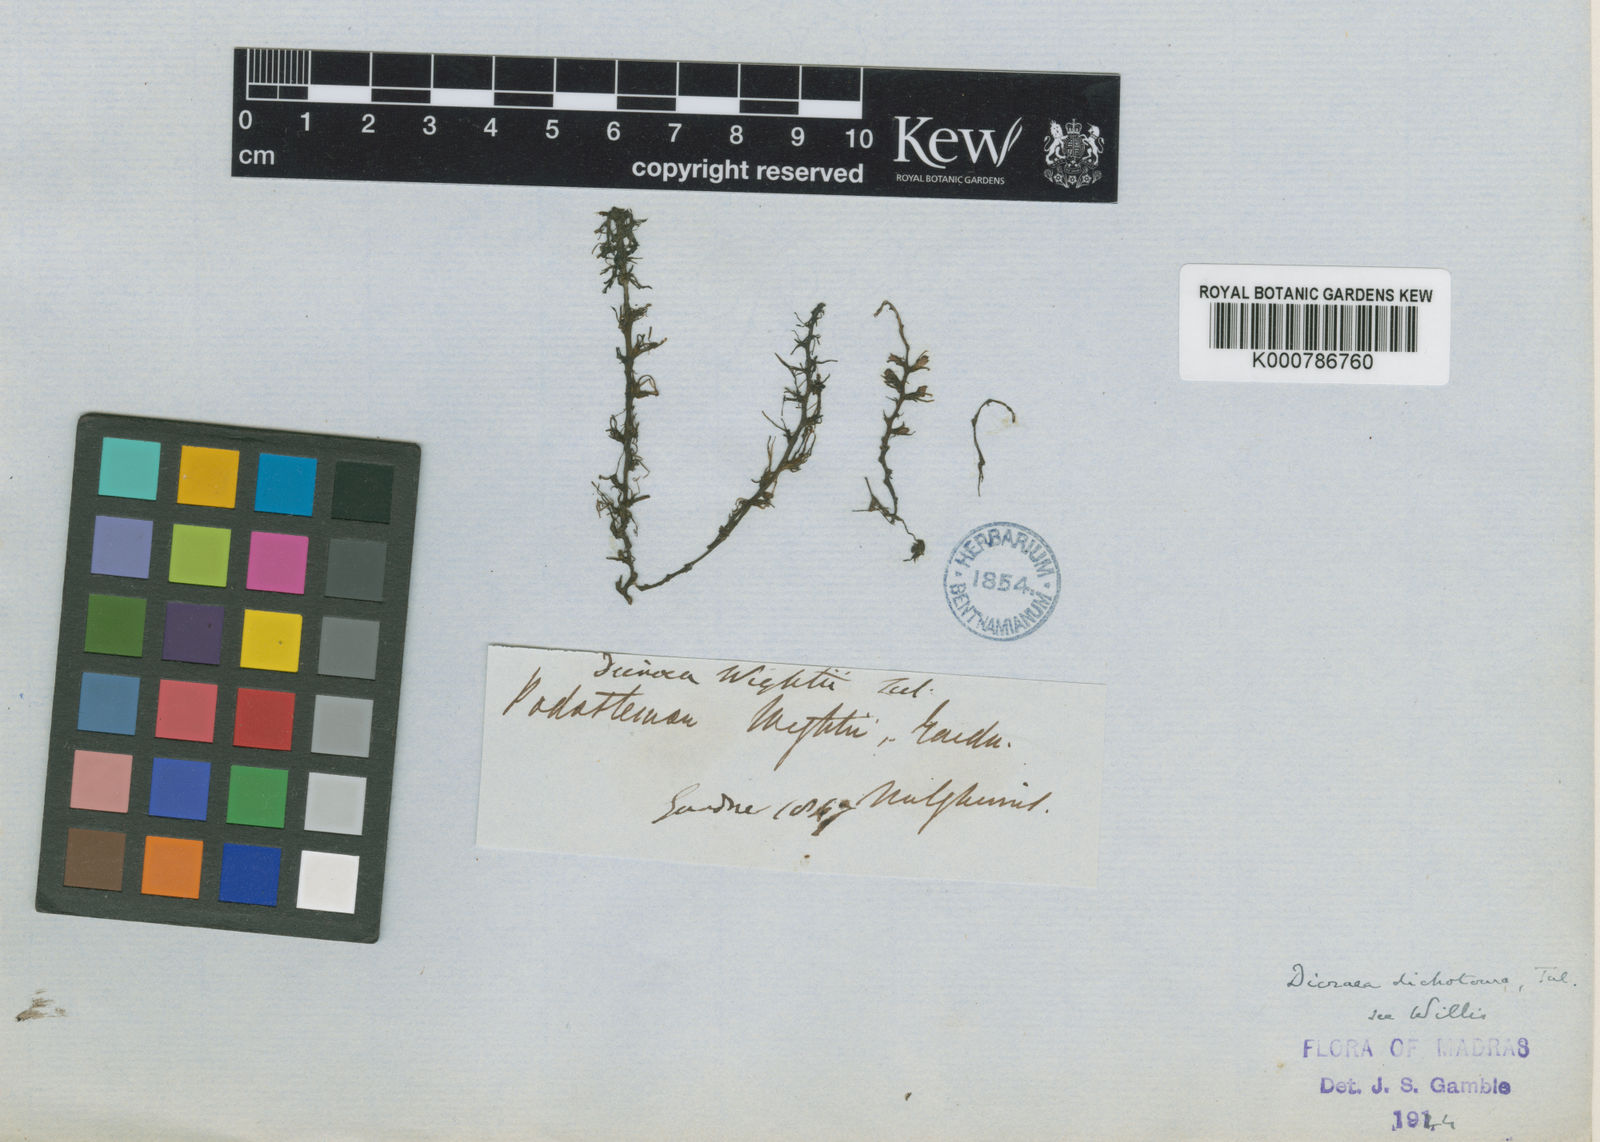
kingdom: Plantae
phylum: Tracheophyta
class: Magnoliopsida
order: Malpighiales
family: Podostemaceae
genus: Polypleurum
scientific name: Polypleurum dichotomum
